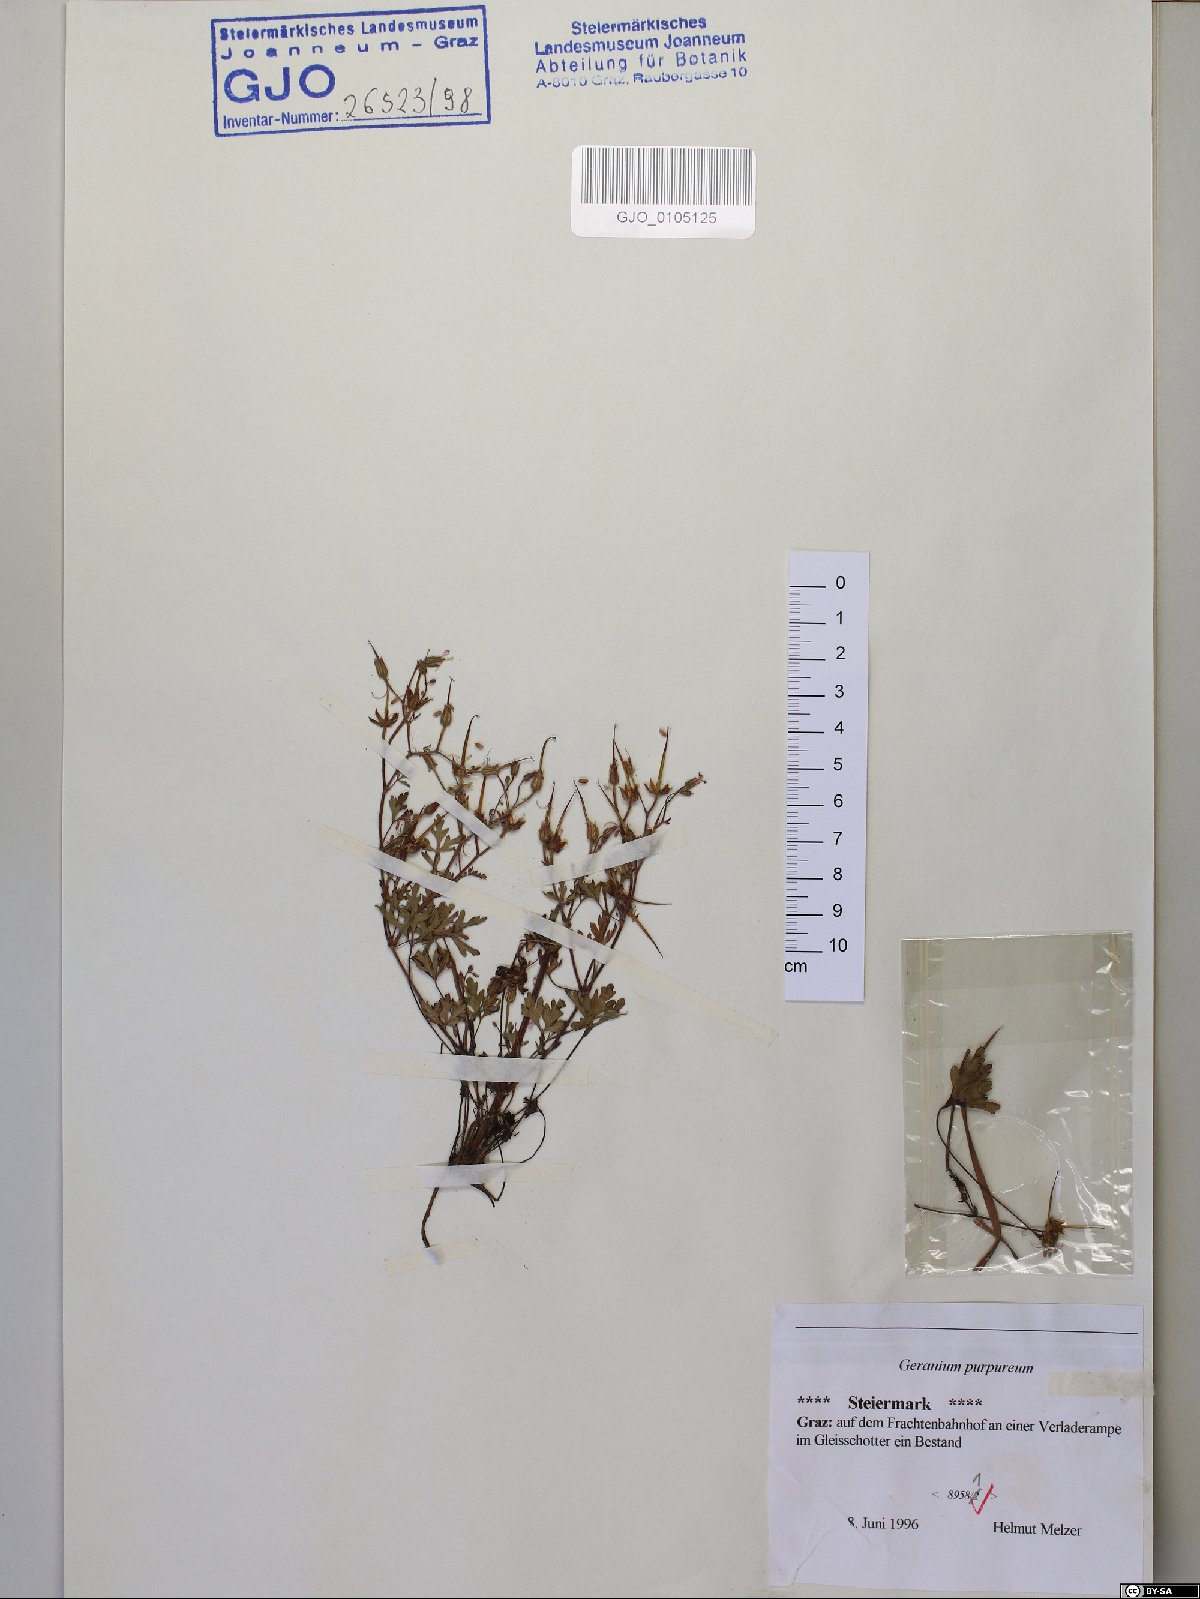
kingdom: Plantae
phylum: Tracheophyta
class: Magnoliopsida
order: Geraniales
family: Geraniaceae
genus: Geranium
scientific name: Geranium purpureum
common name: Little-robin
